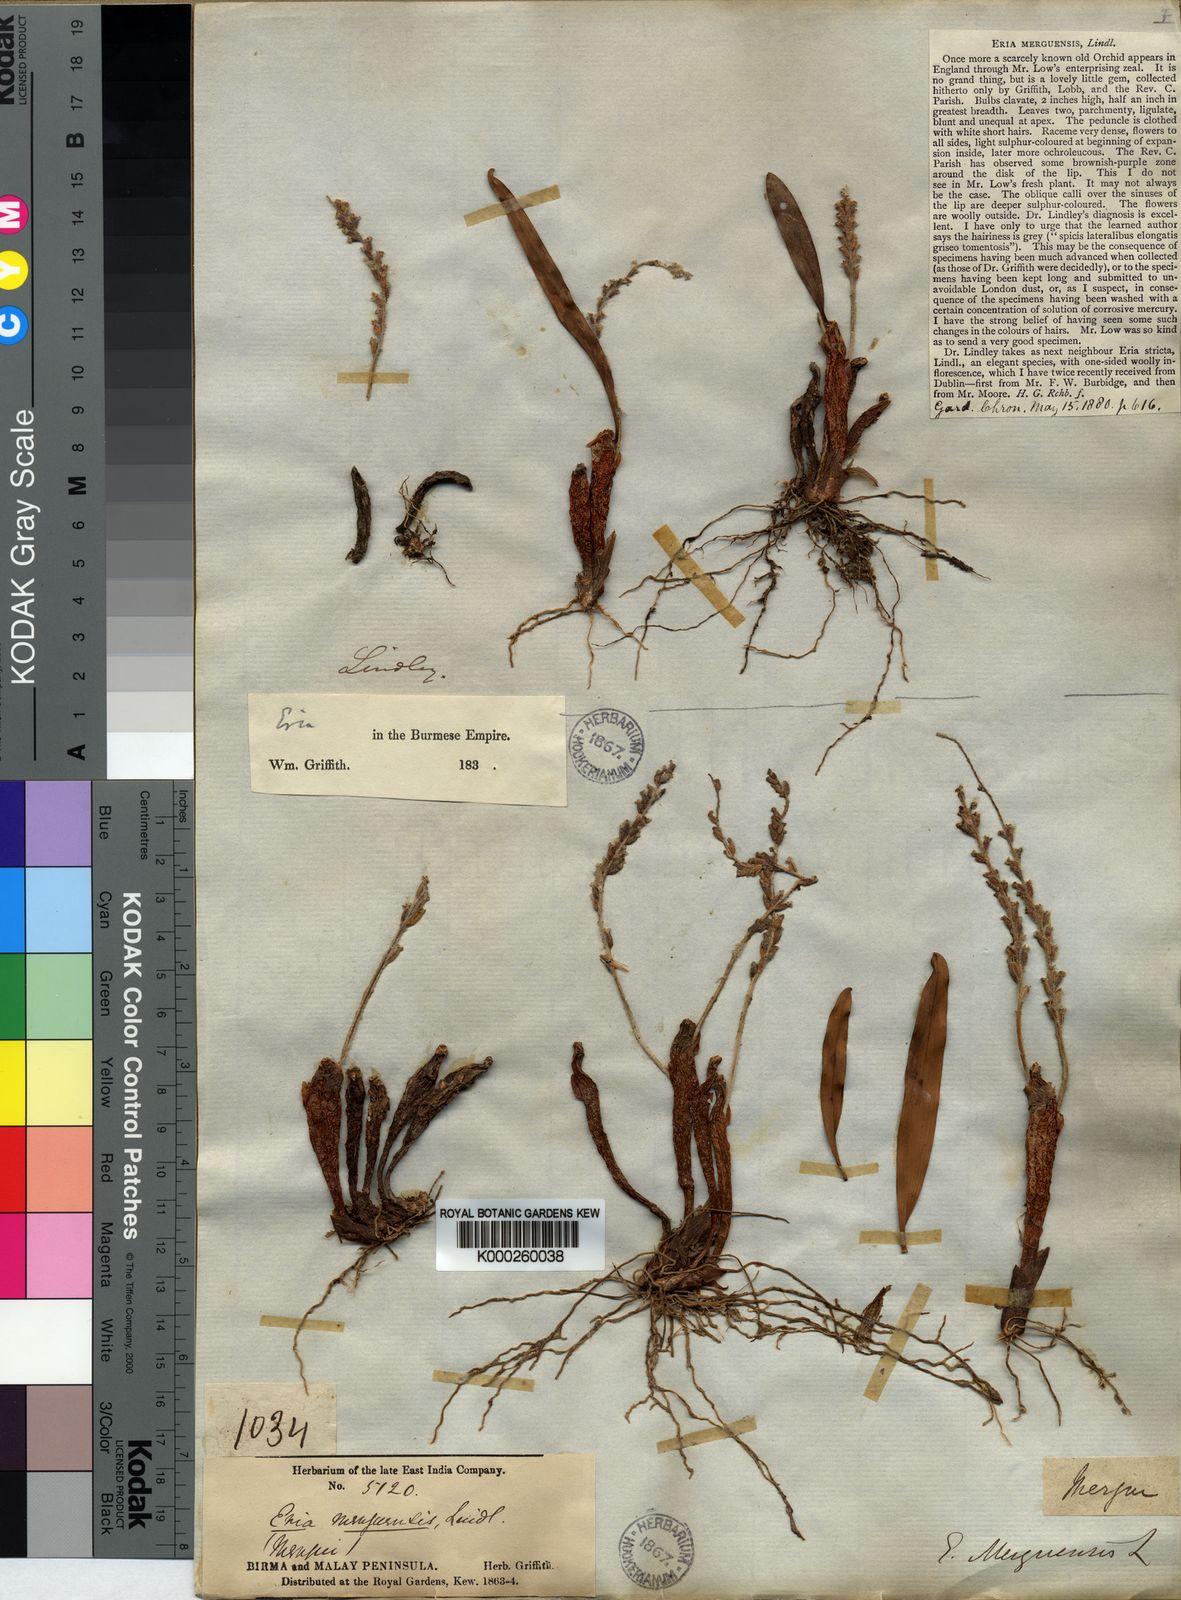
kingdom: Plantae
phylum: Tracheophyta
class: Liliopsida
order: Asparagales
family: Orchidaceae
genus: Pinalia
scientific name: Pinalia merguensis
